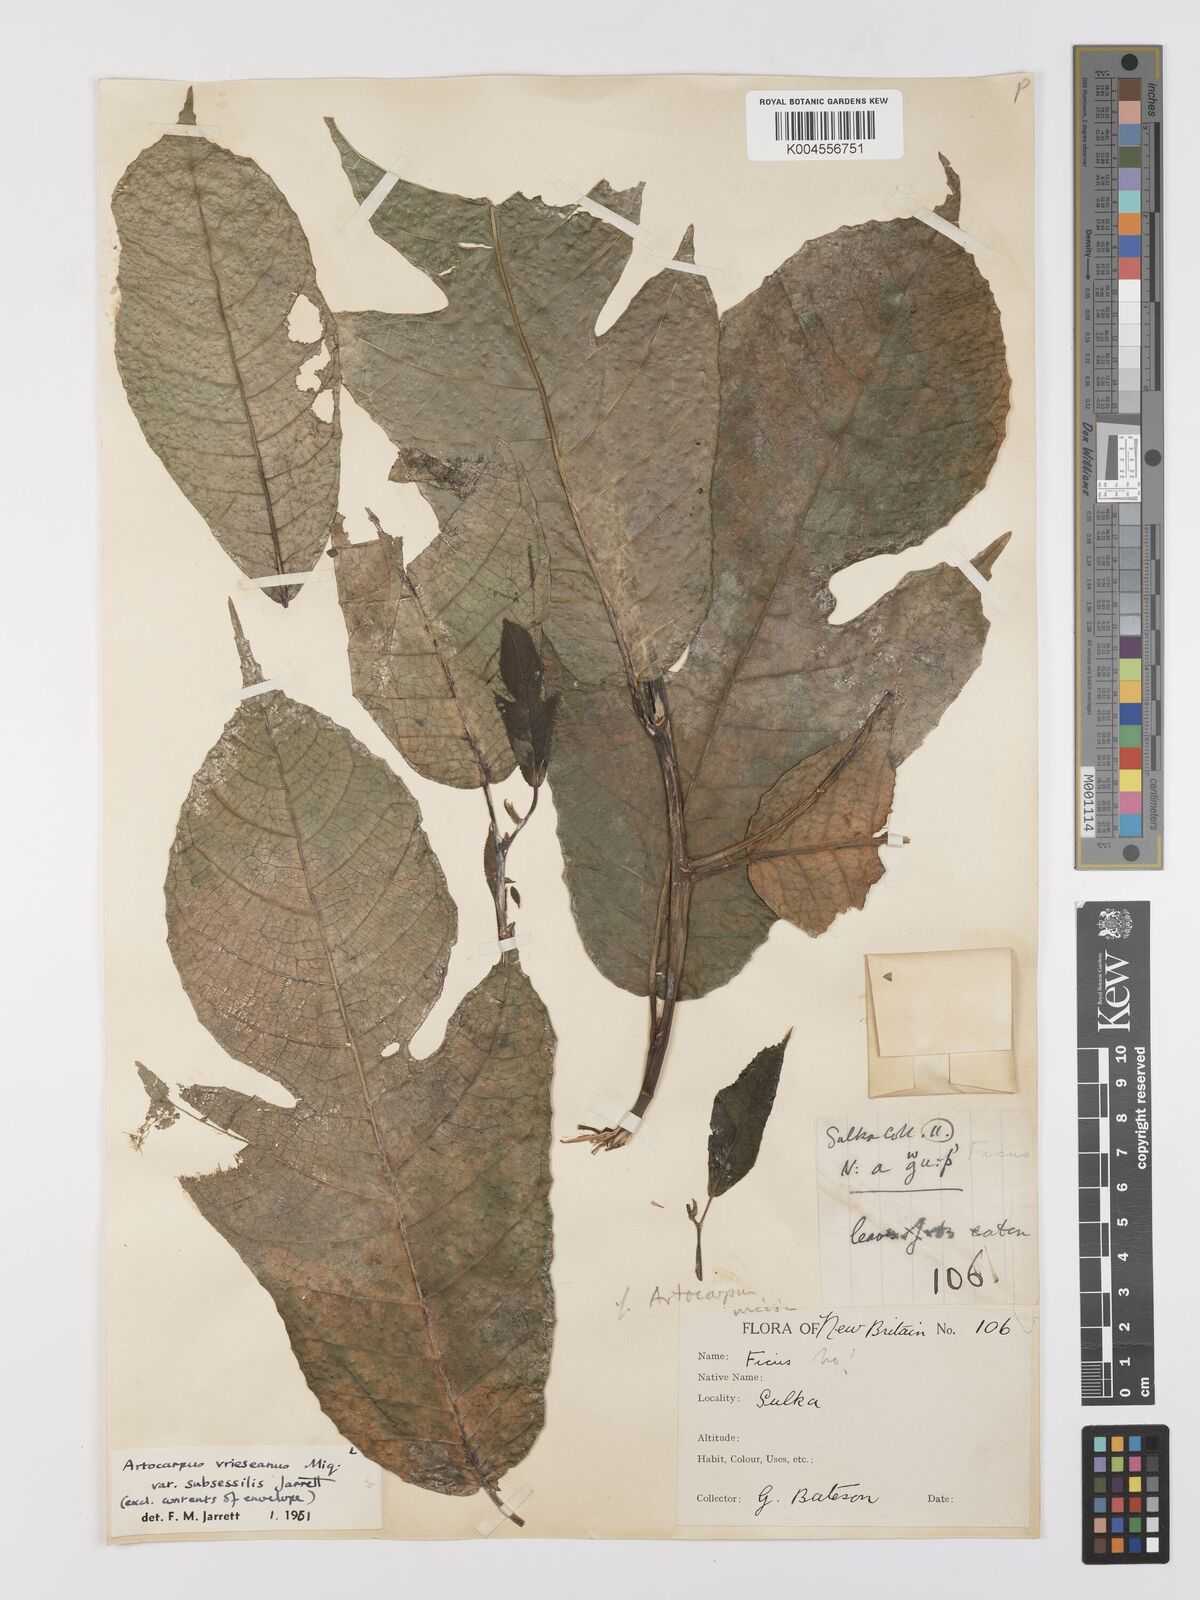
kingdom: Plantae
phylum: Tracheophyta
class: Magnoliopsida
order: Rosales
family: Moraceae
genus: Artocarpus
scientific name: Artocarpus vrieseanus
